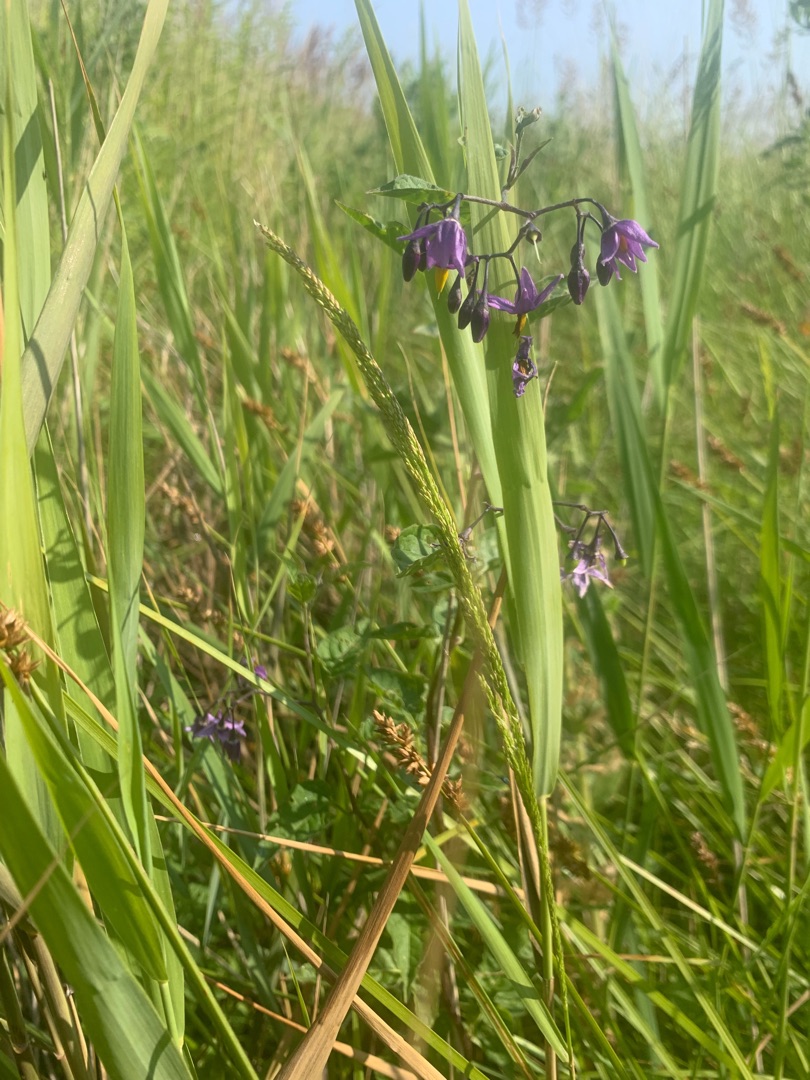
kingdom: Plantae
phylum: Tracheophyta
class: Magnoliopsida
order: Solanales
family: Solanaceae
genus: Solanum
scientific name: Solanum dulcamara
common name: Bittersød natskygge
